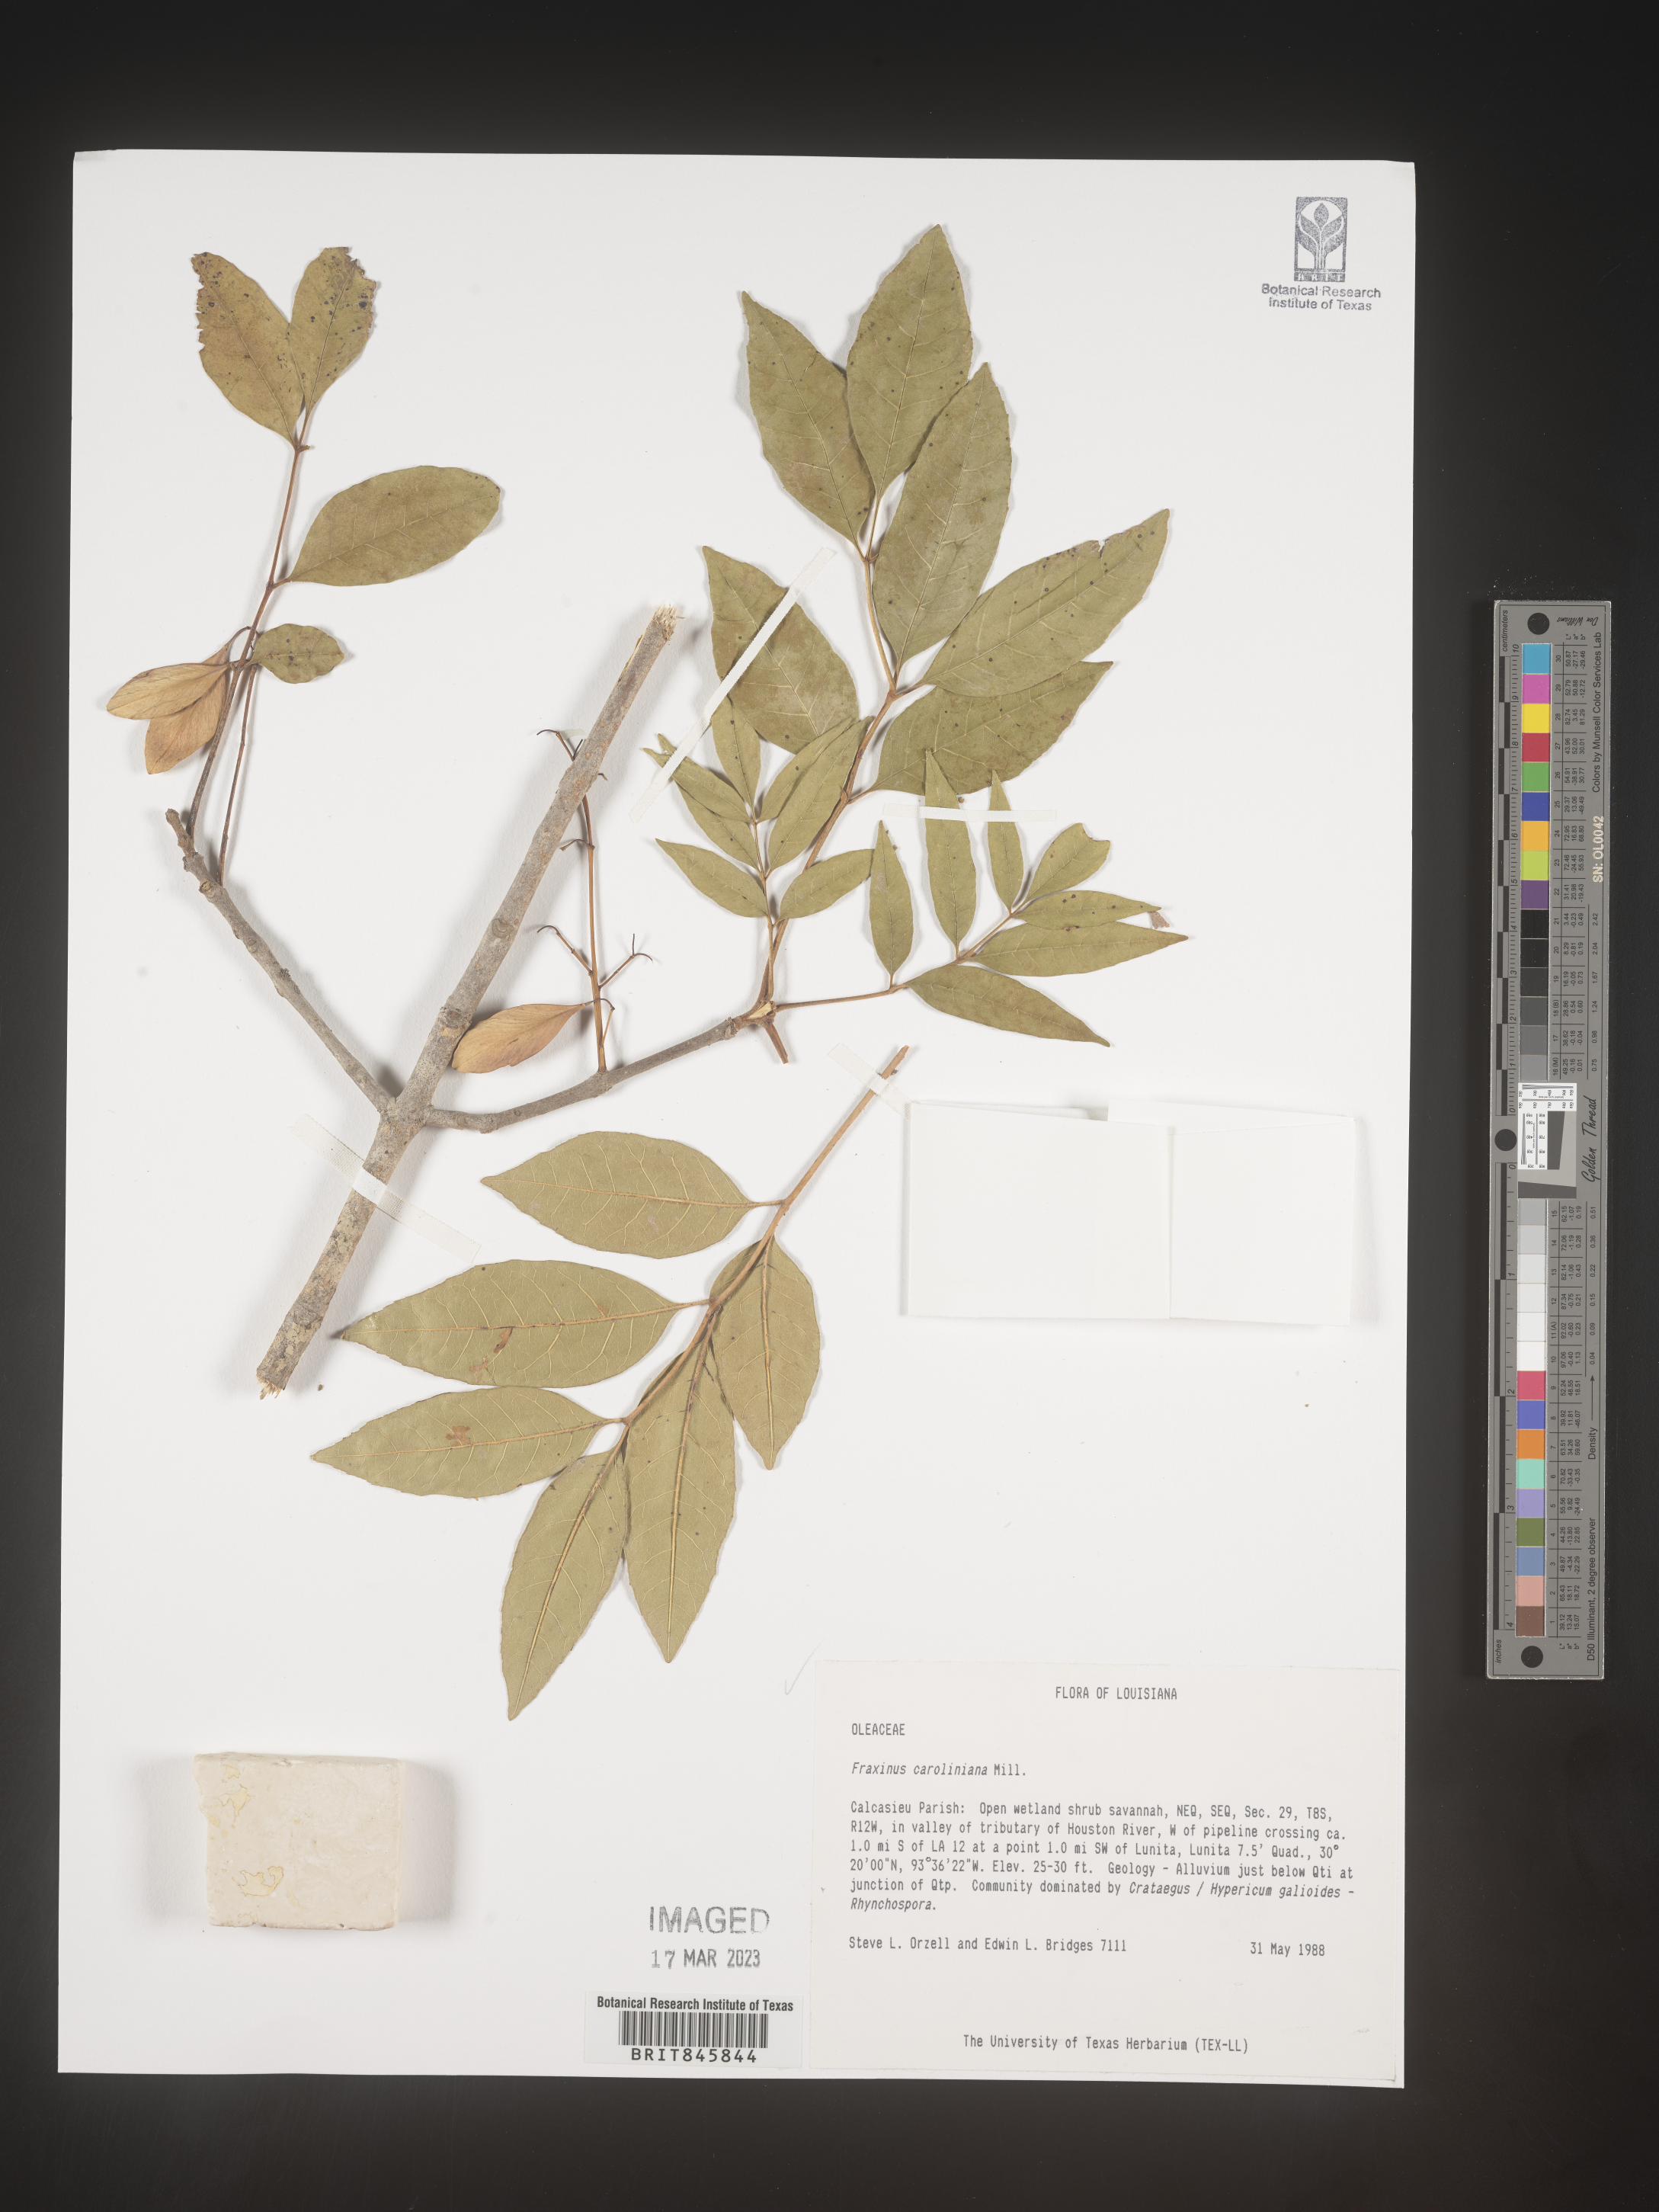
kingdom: Plantae
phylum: Tracheophyta
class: Magnoliopsida
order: Lamiales
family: Oleaceae
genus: Fraxinus
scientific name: Fraxinus caroliniana
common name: Carolina ash
